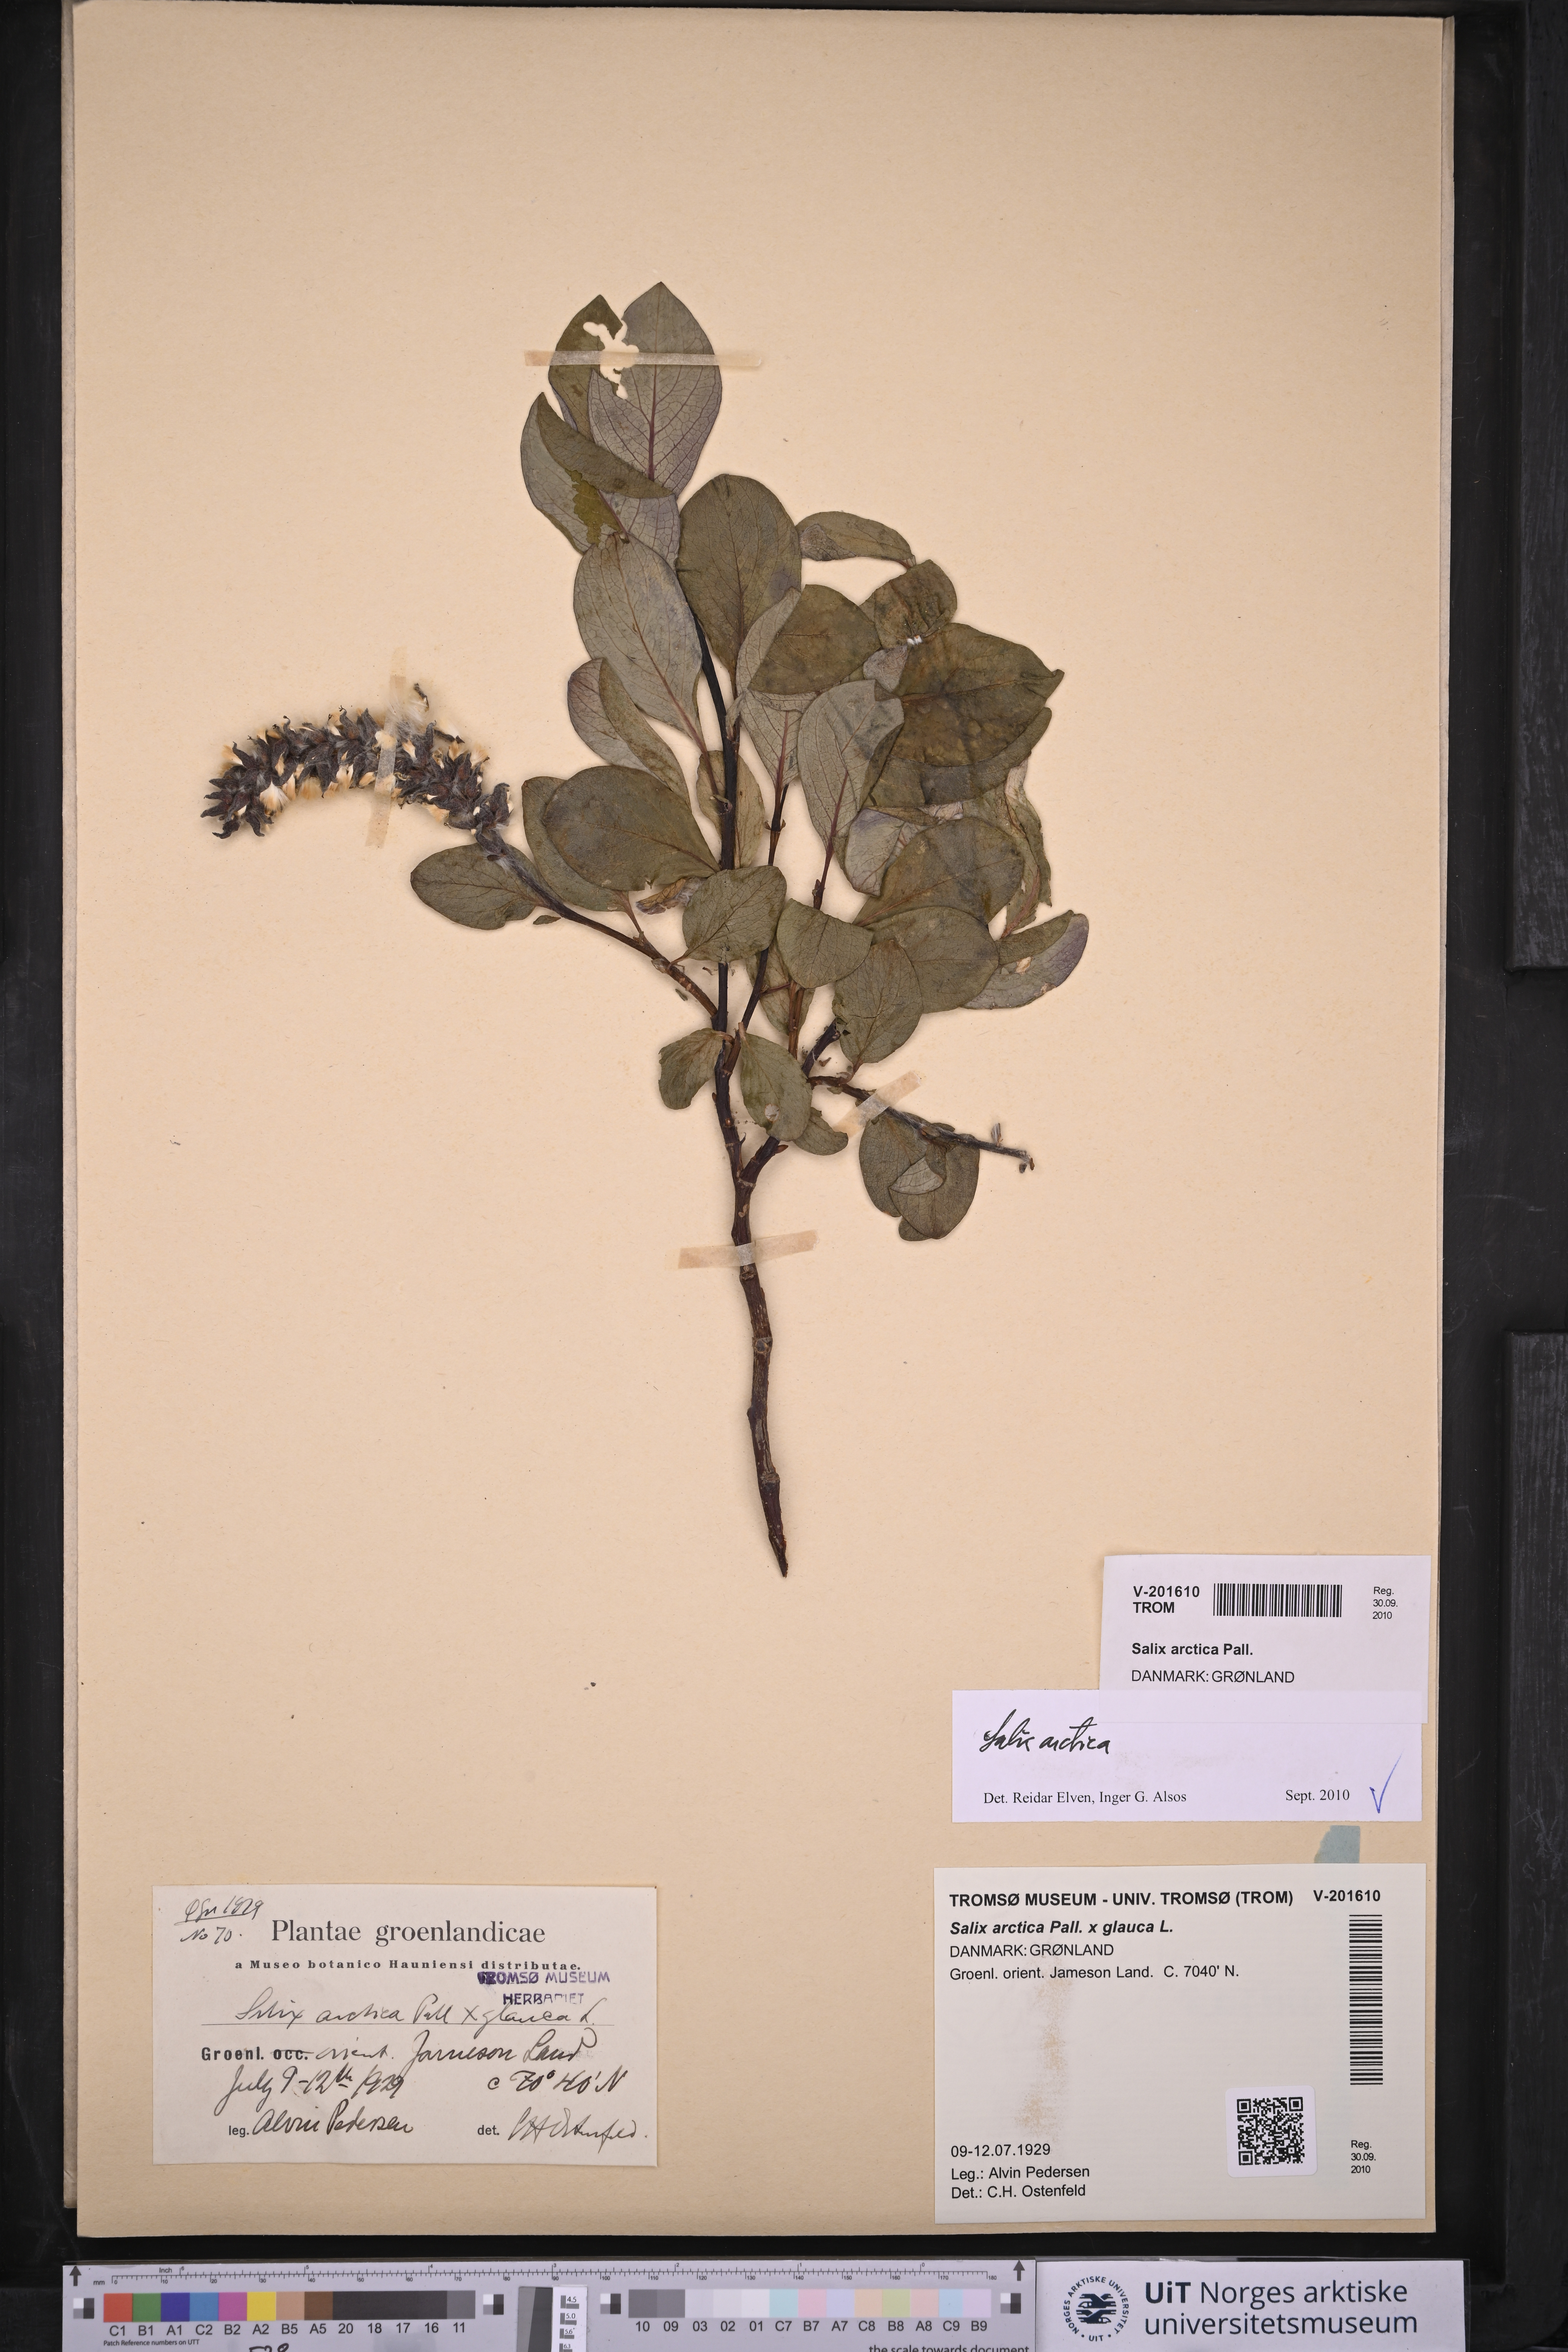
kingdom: Plantae
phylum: Tracheophyta
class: Magnoliopsida
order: Malpighiales
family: Salicaceae
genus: Salix
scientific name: Salix arctica
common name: Arctic willow
